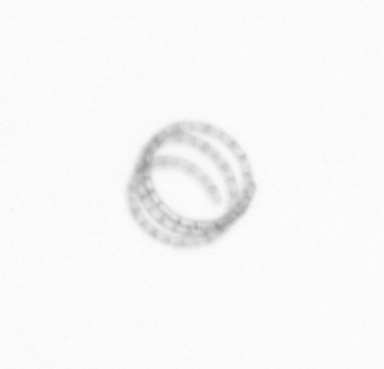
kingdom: Chromista
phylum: Ochrophyta
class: Bacillariophyceae
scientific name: Bacillariophyceae
